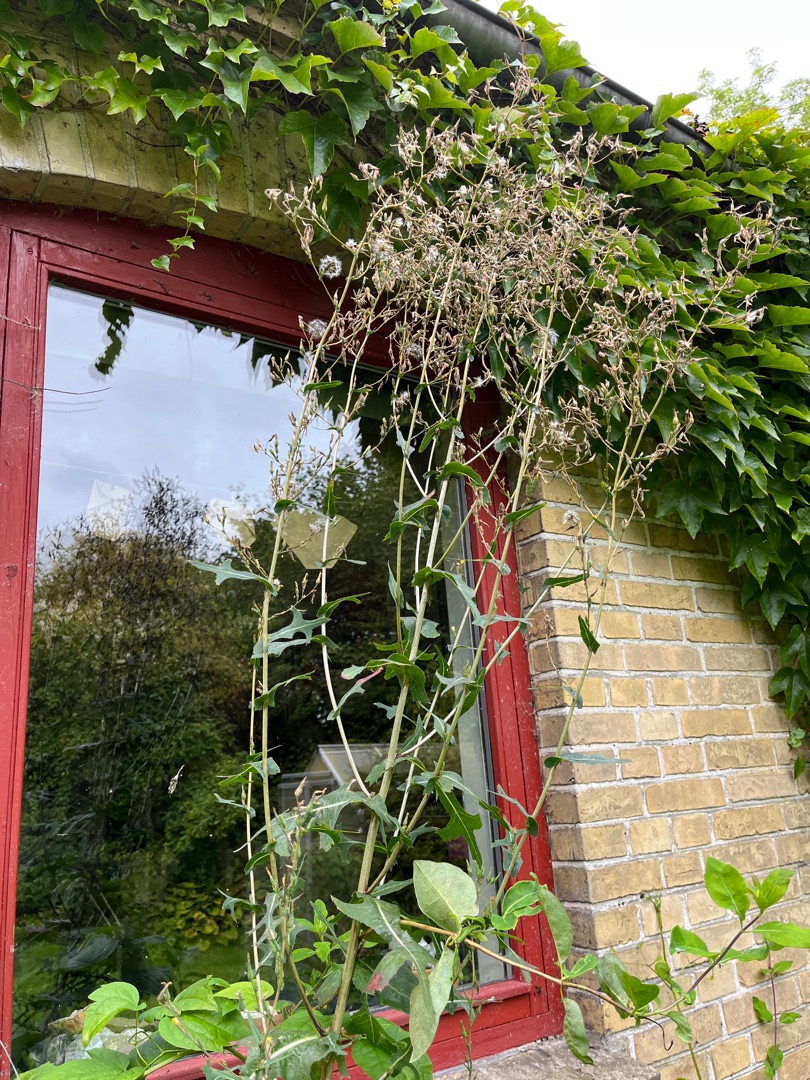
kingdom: Plantae
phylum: Tracheophyta
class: Magnoliopsida
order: Asterales
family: Asteraceae
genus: Lactuca
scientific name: Lactuca serriola
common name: Tornet salat
